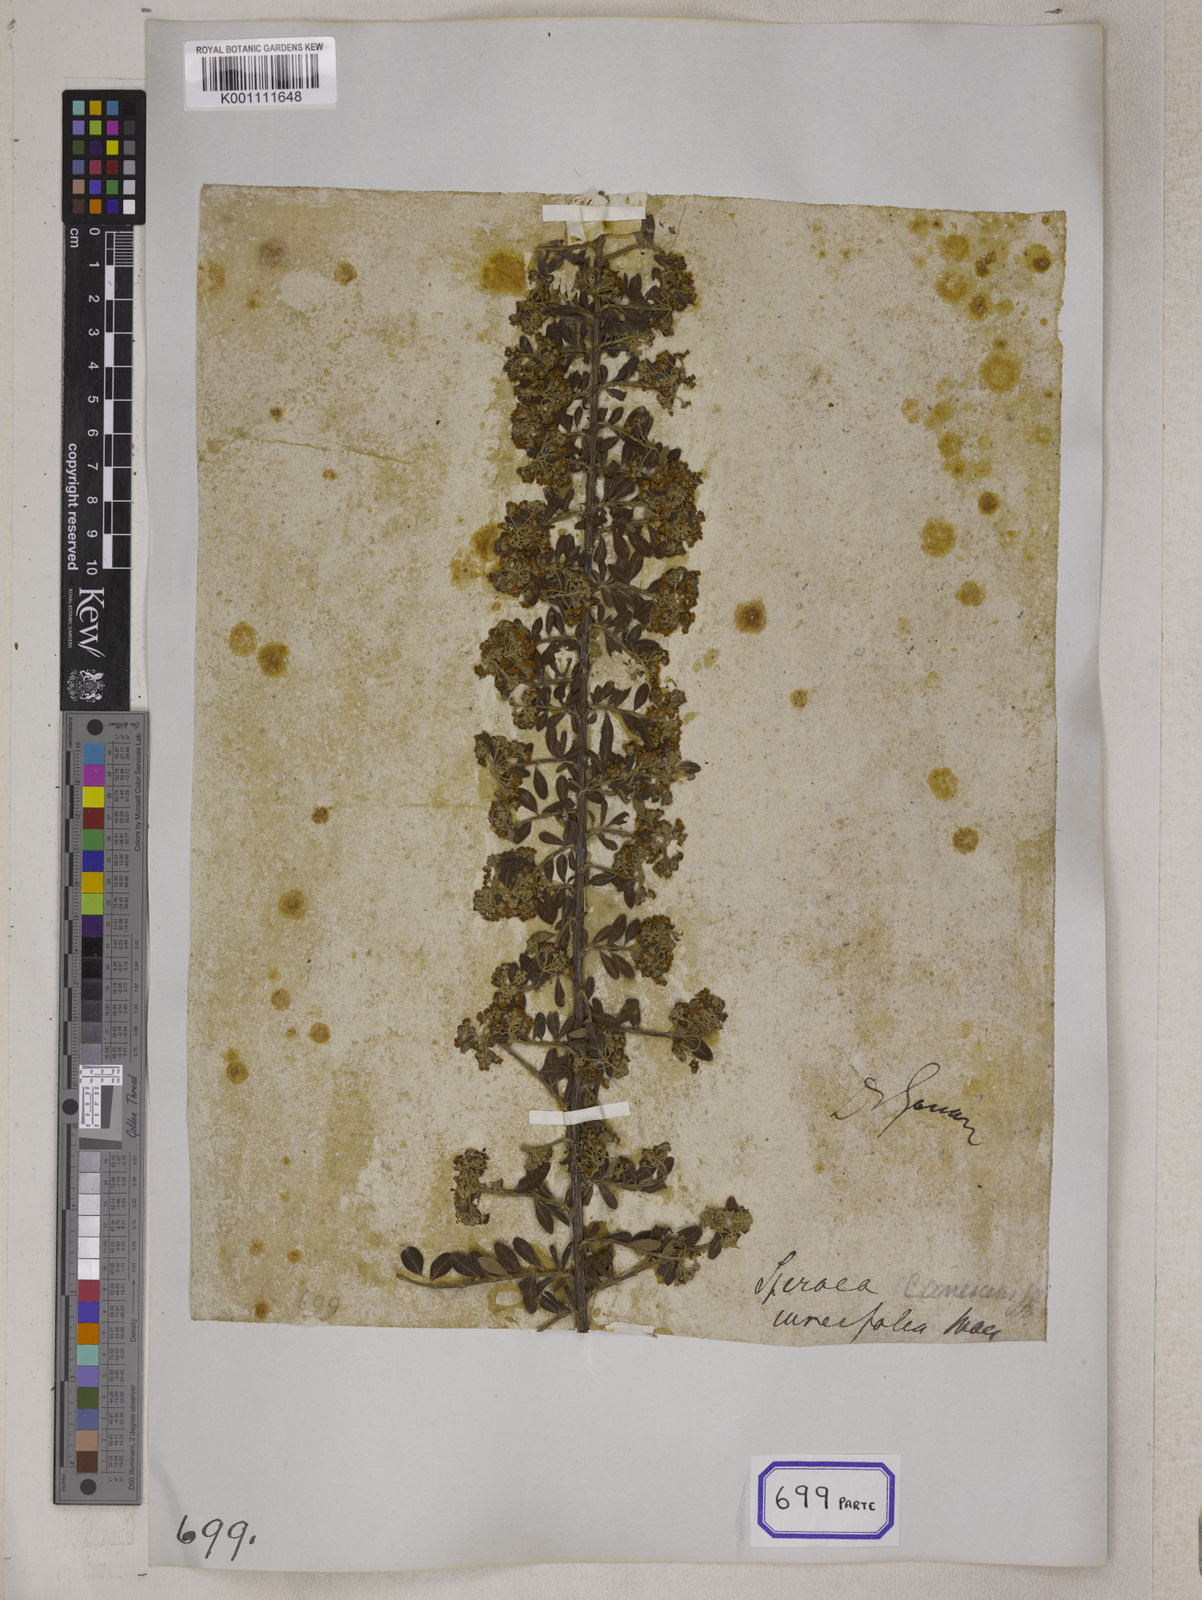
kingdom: Plantae
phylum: Tracheophyta
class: Magnoliopsida
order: Rosales
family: Rosaceae
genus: Spiraea
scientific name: Spiraea
